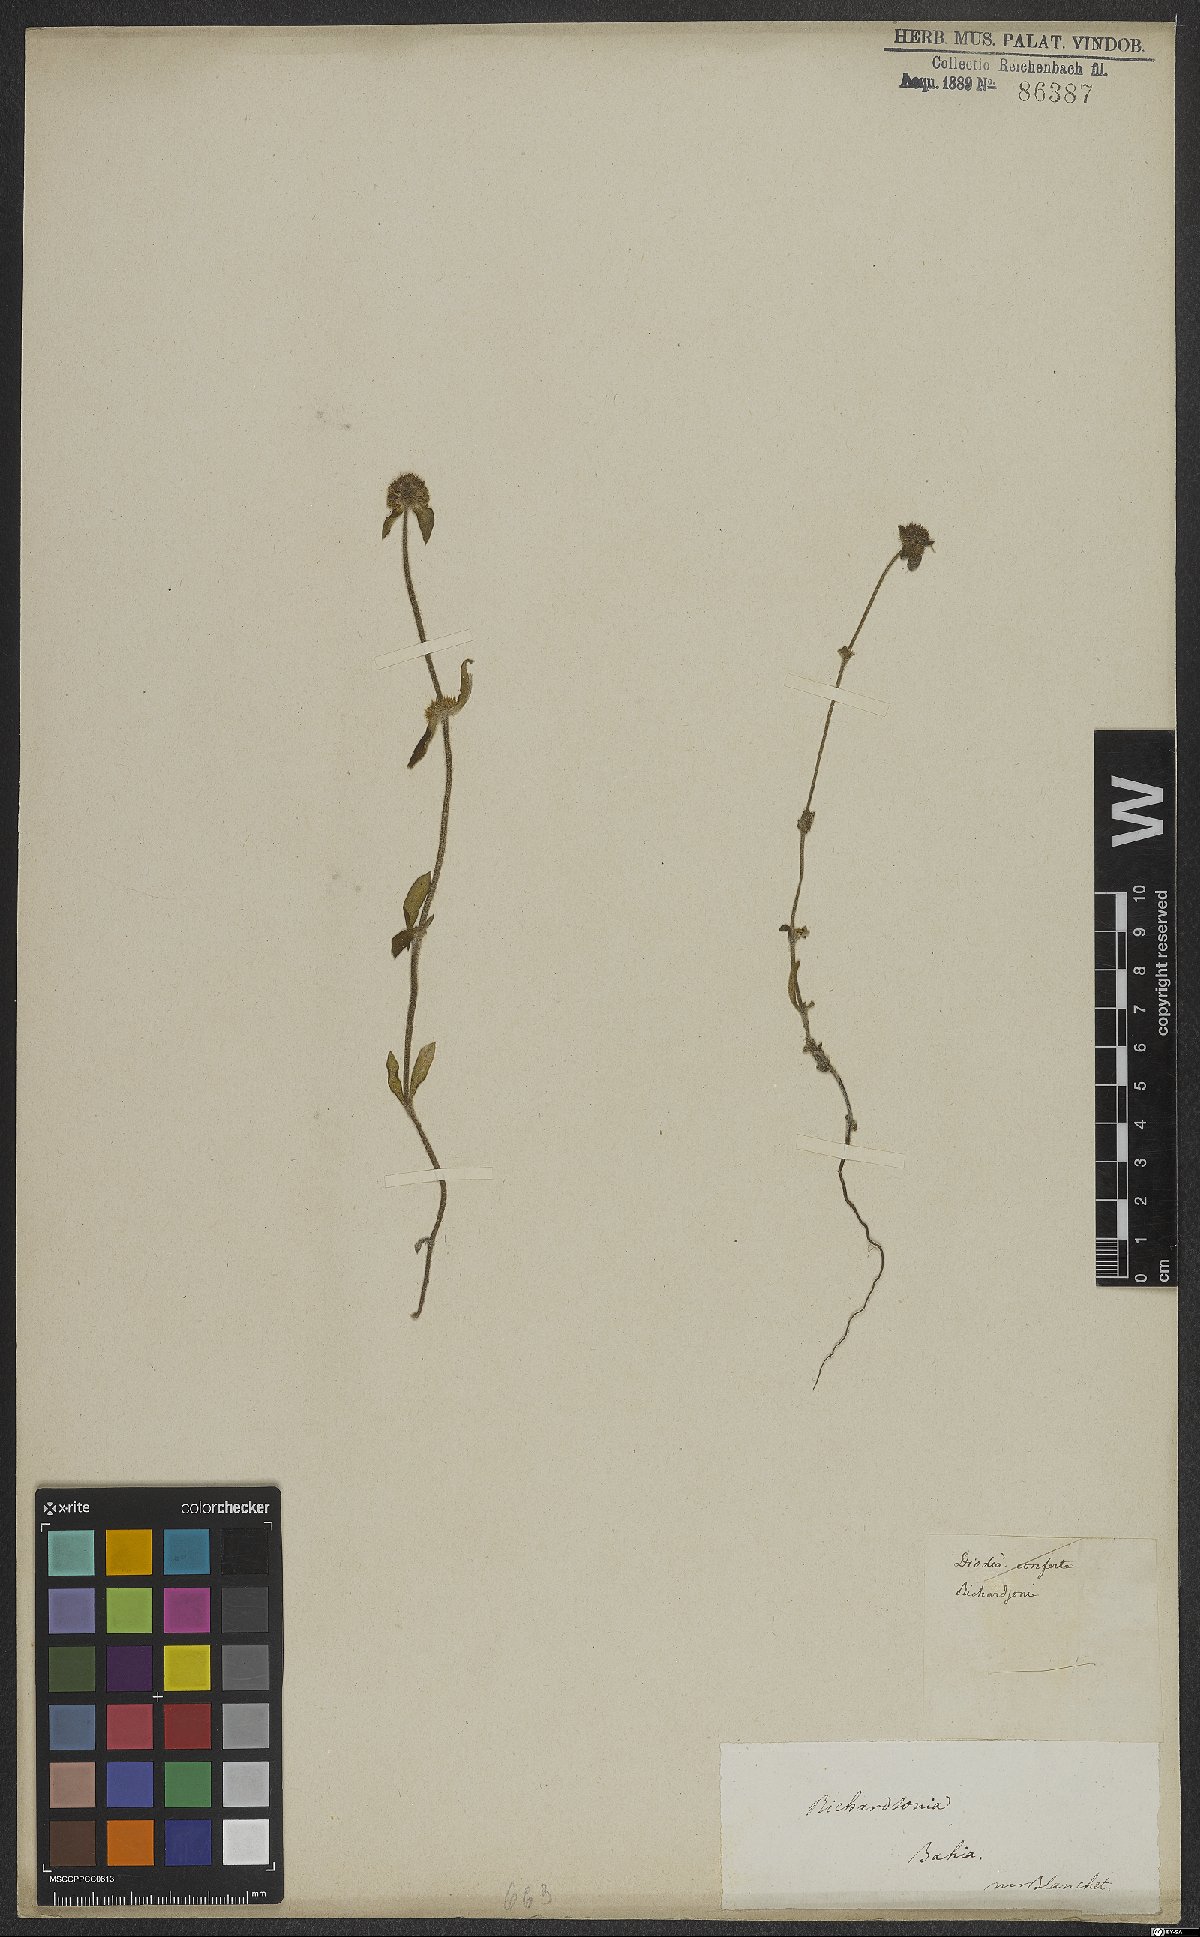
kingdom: Plantae
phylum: Tracheophyta
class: Magnoliopsida
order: Gentianales
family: Rubiaceae
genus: Diodia
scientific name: Diodia
